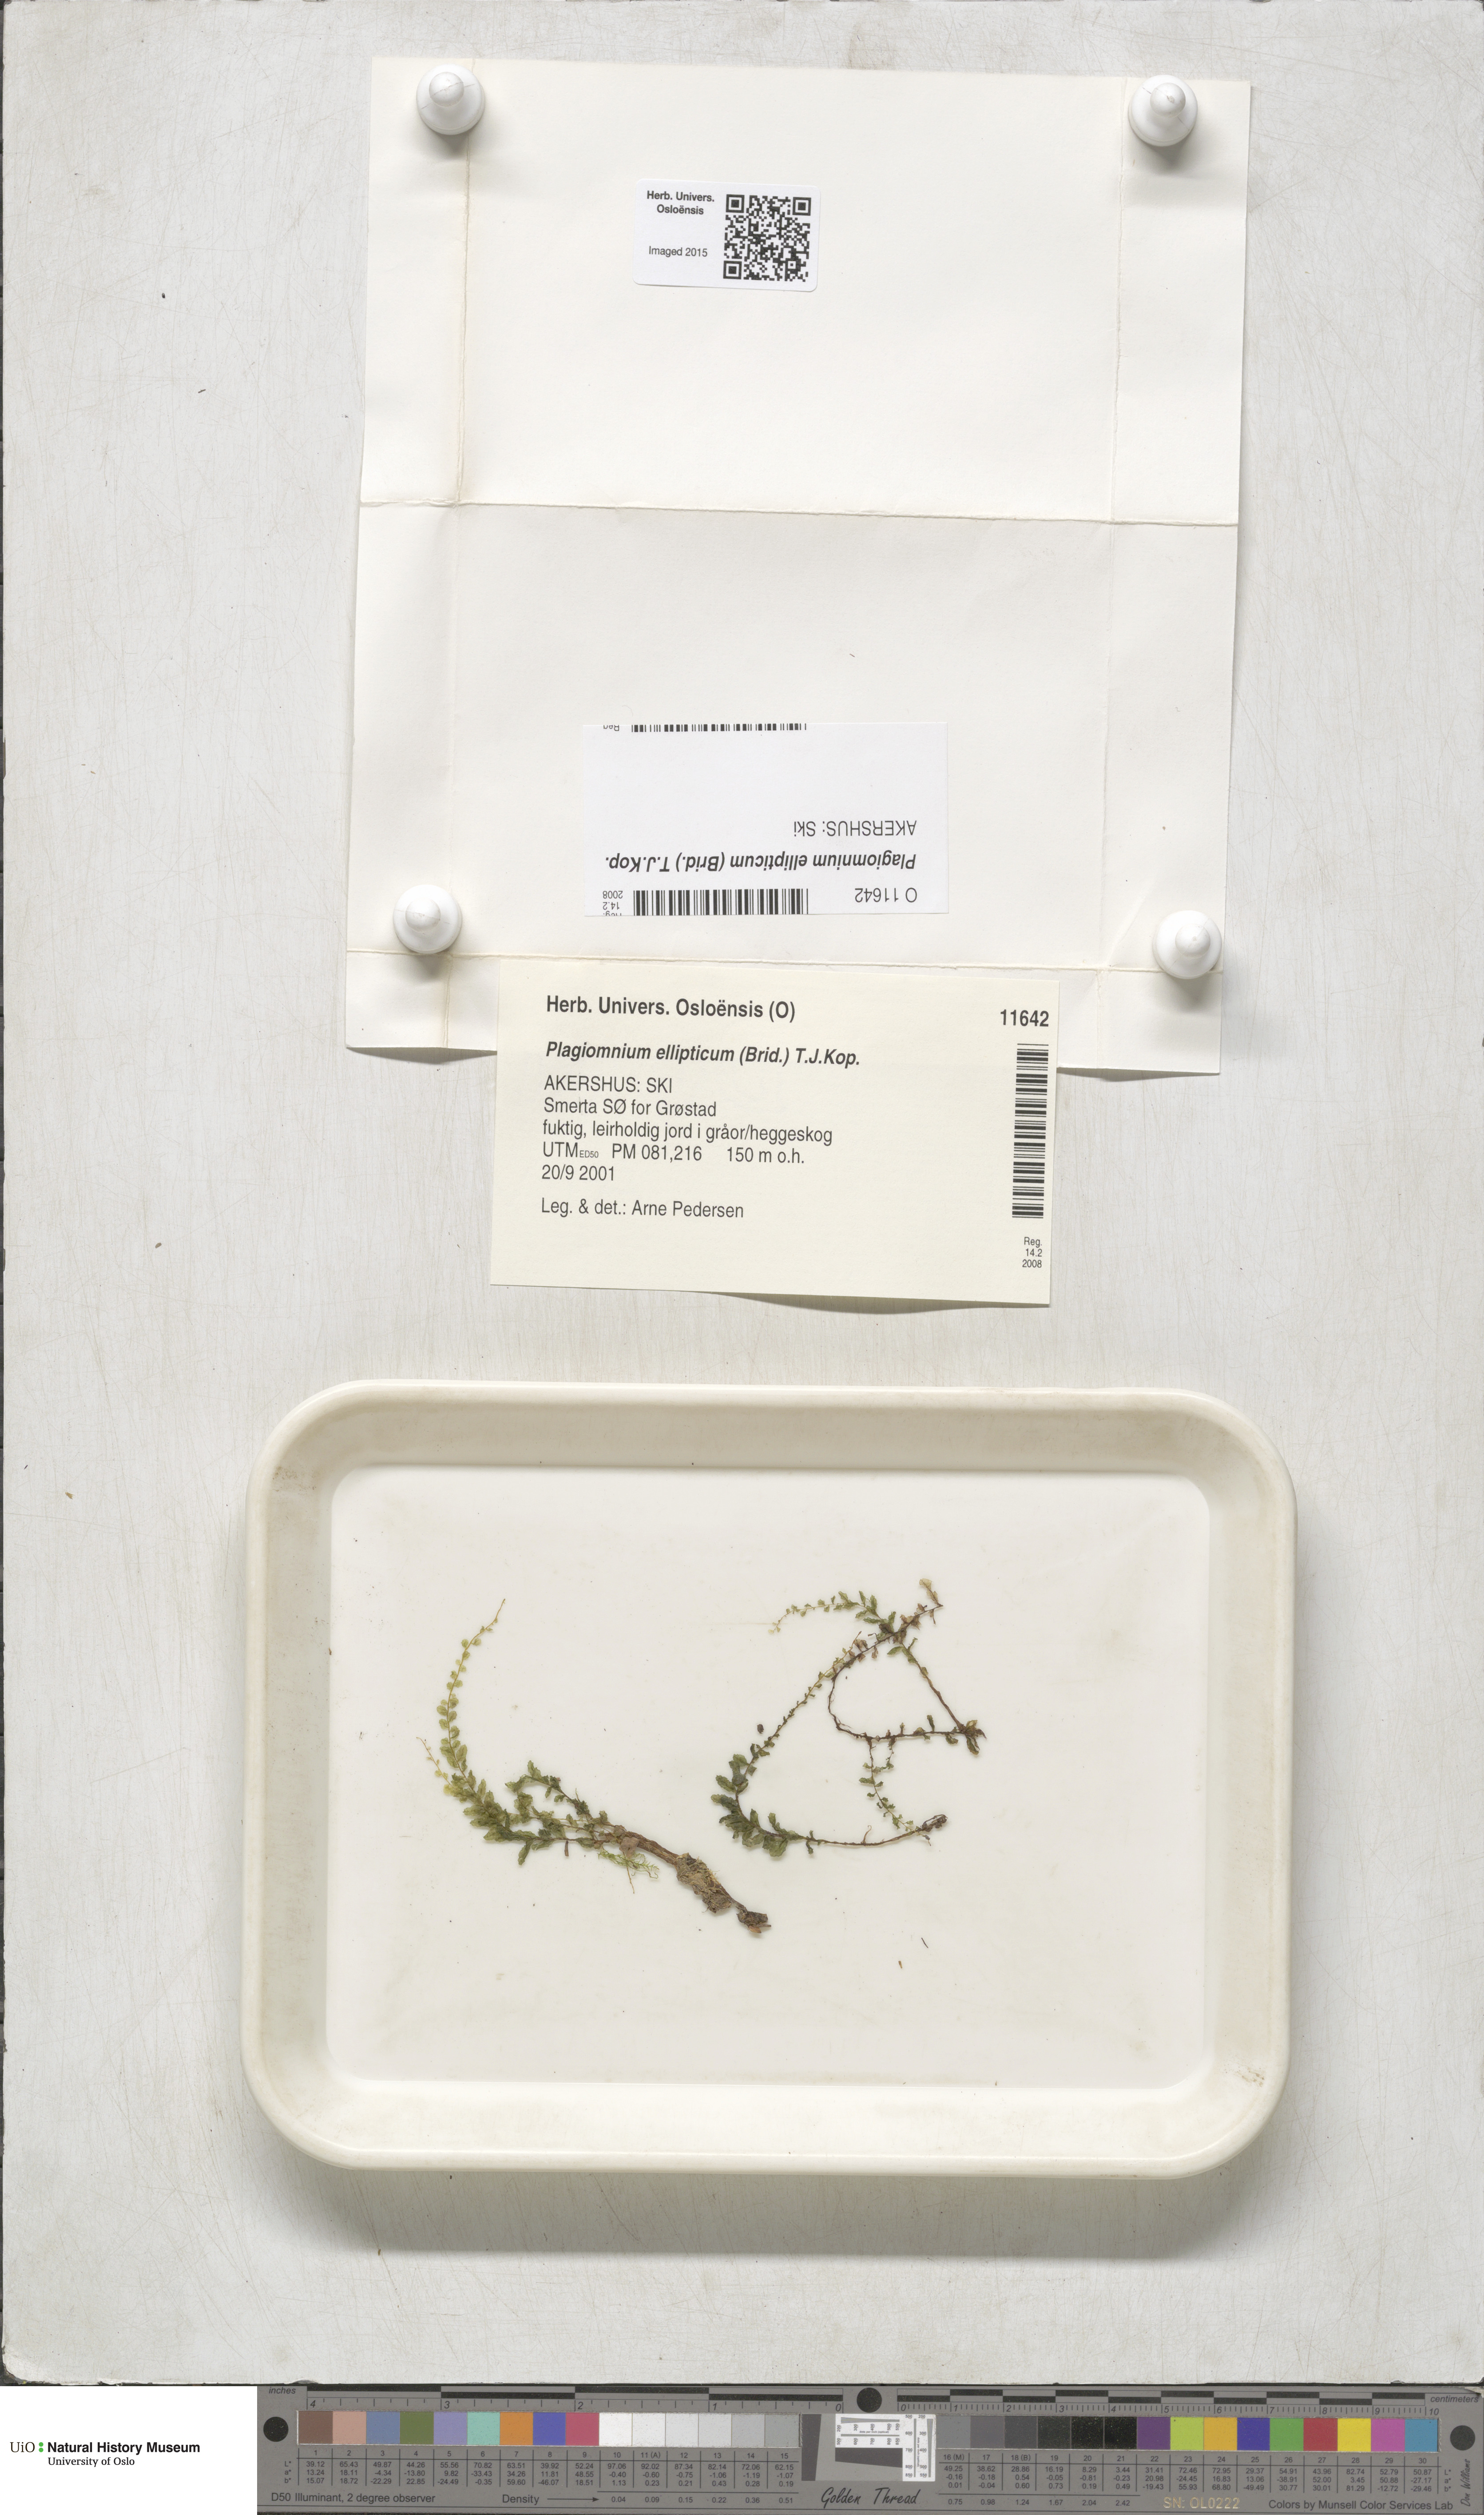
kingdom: Plantae
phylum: Bryophyta
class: Bryopsida
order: Bryales
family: Mniaceae
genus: Plagiomnium
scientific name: Plagiomnium ellipticum
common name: Marsh leafy moss
